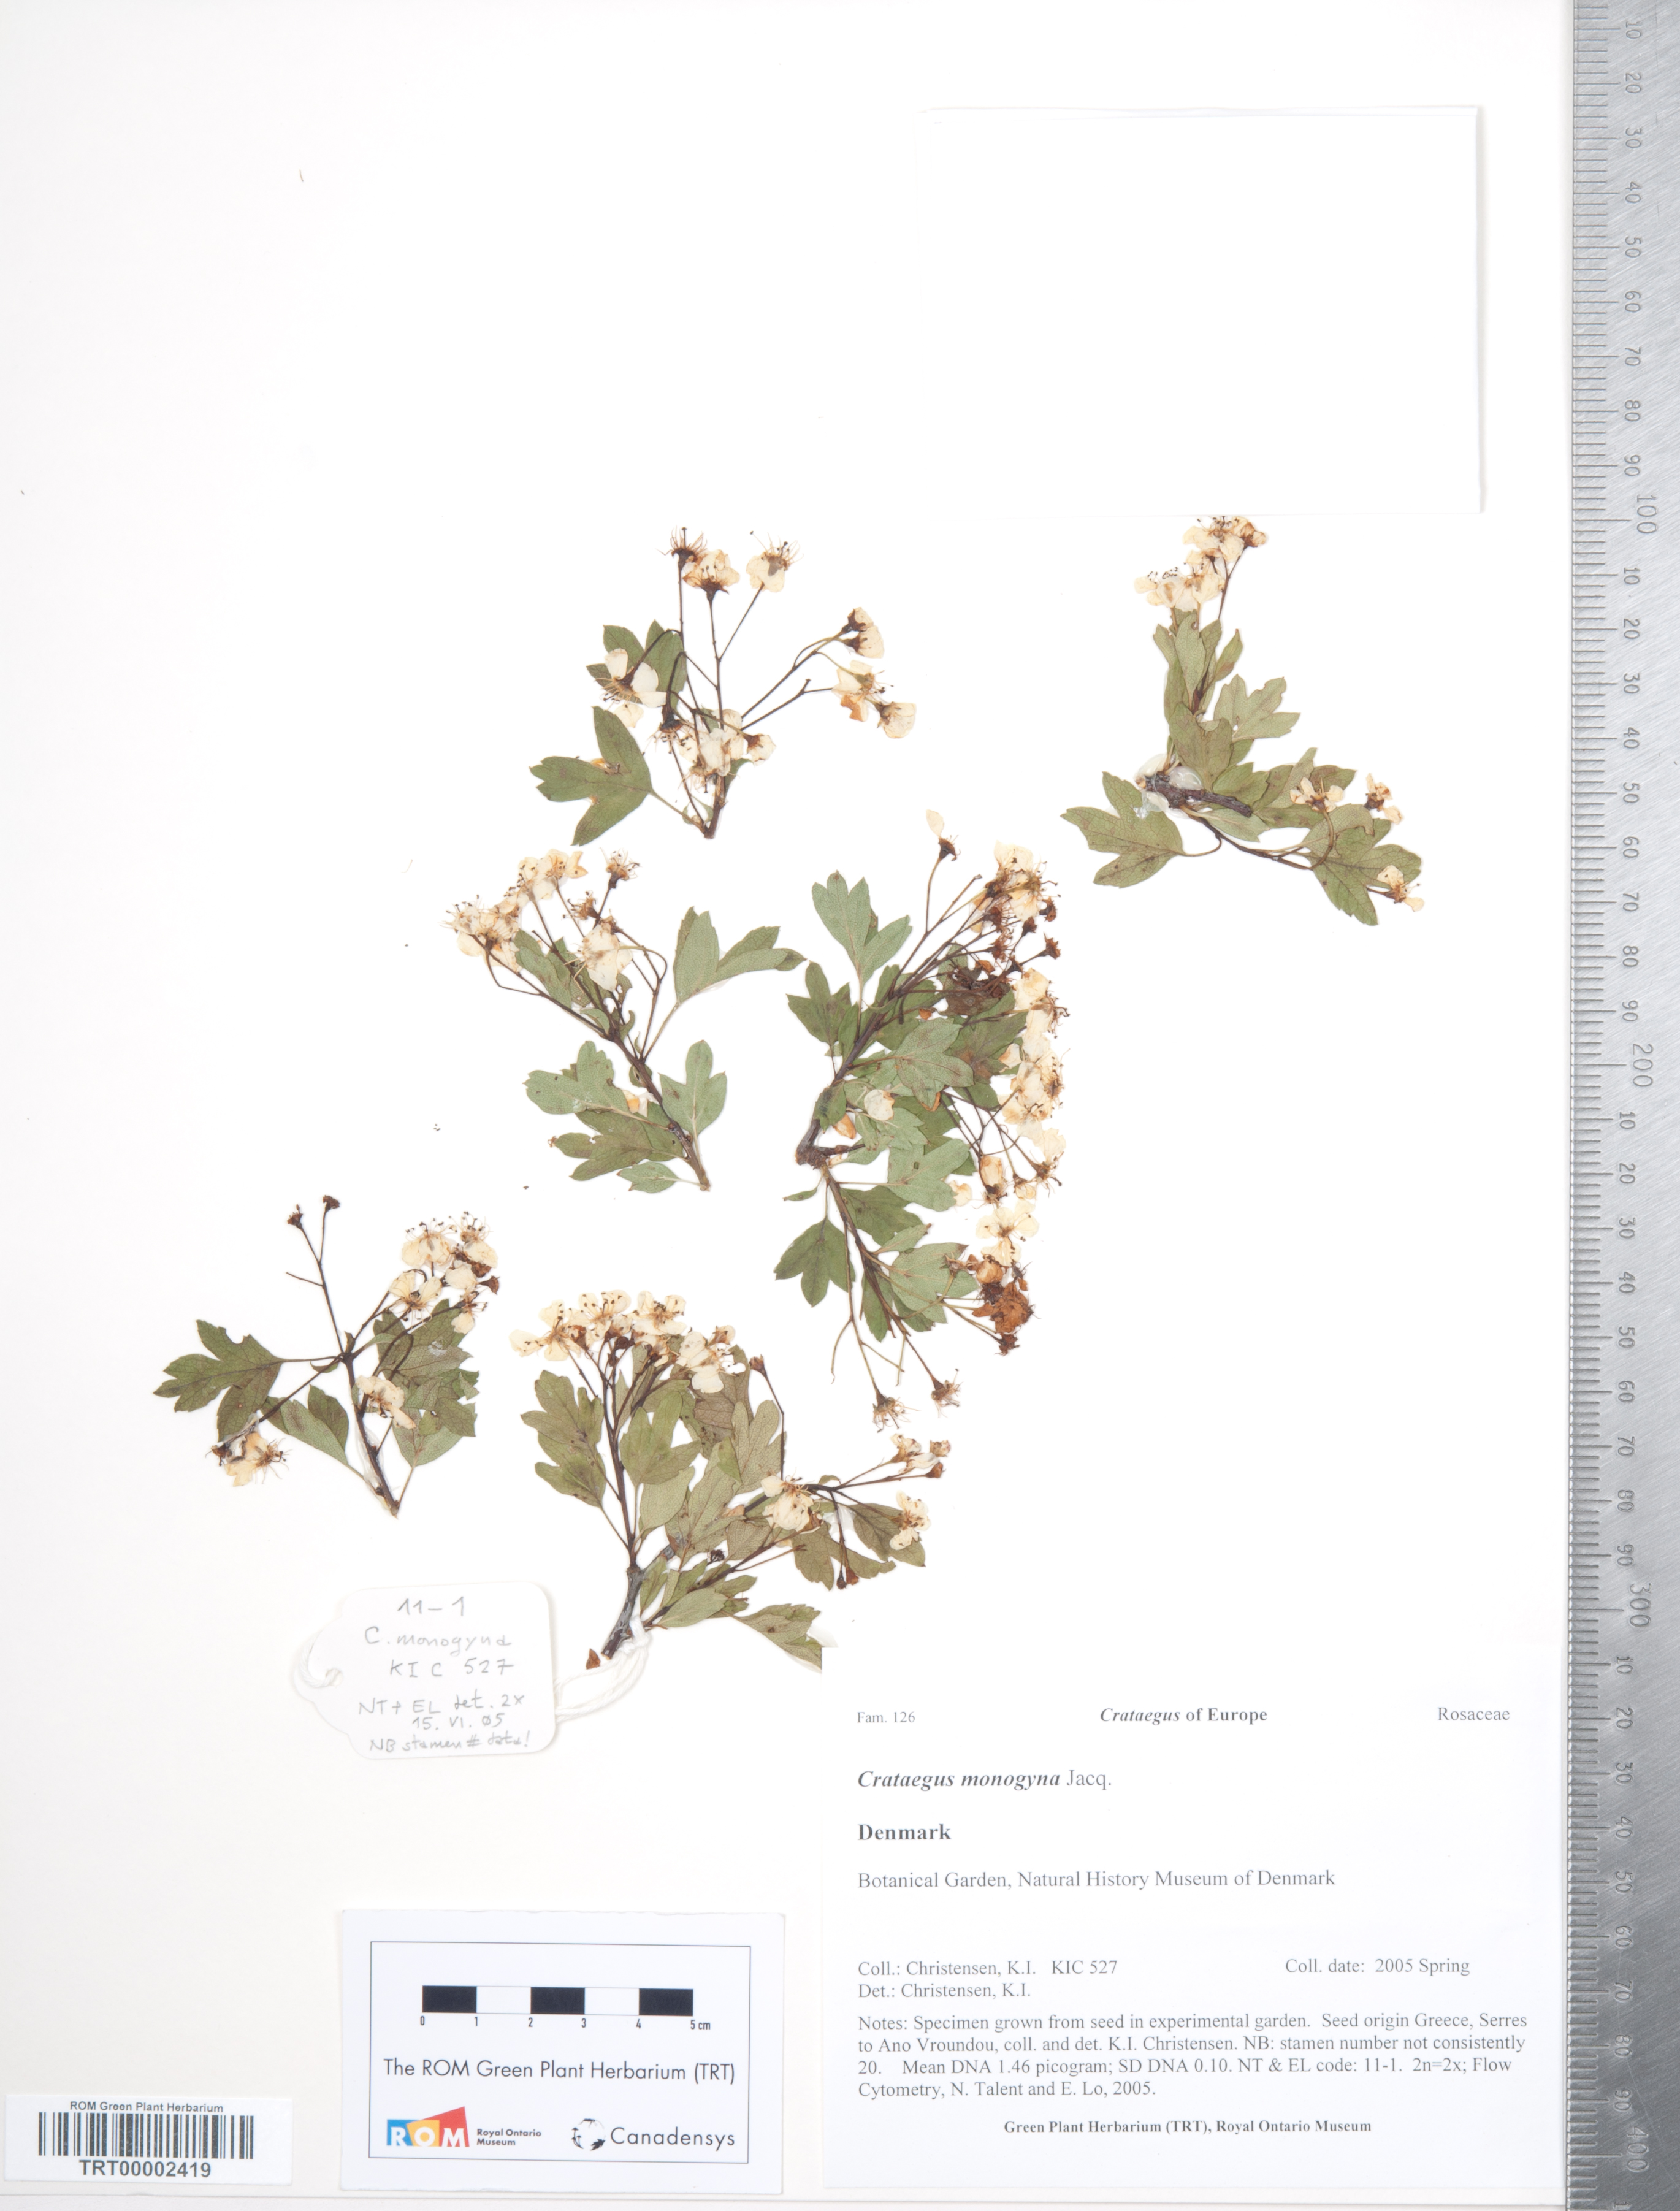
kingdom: Plantae
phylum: Tracheophyta
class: Magnoliopsida
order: Rosales
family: Rosaceae
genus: Crataegus
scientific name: Crataegus monogyna
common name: Hawthorn
